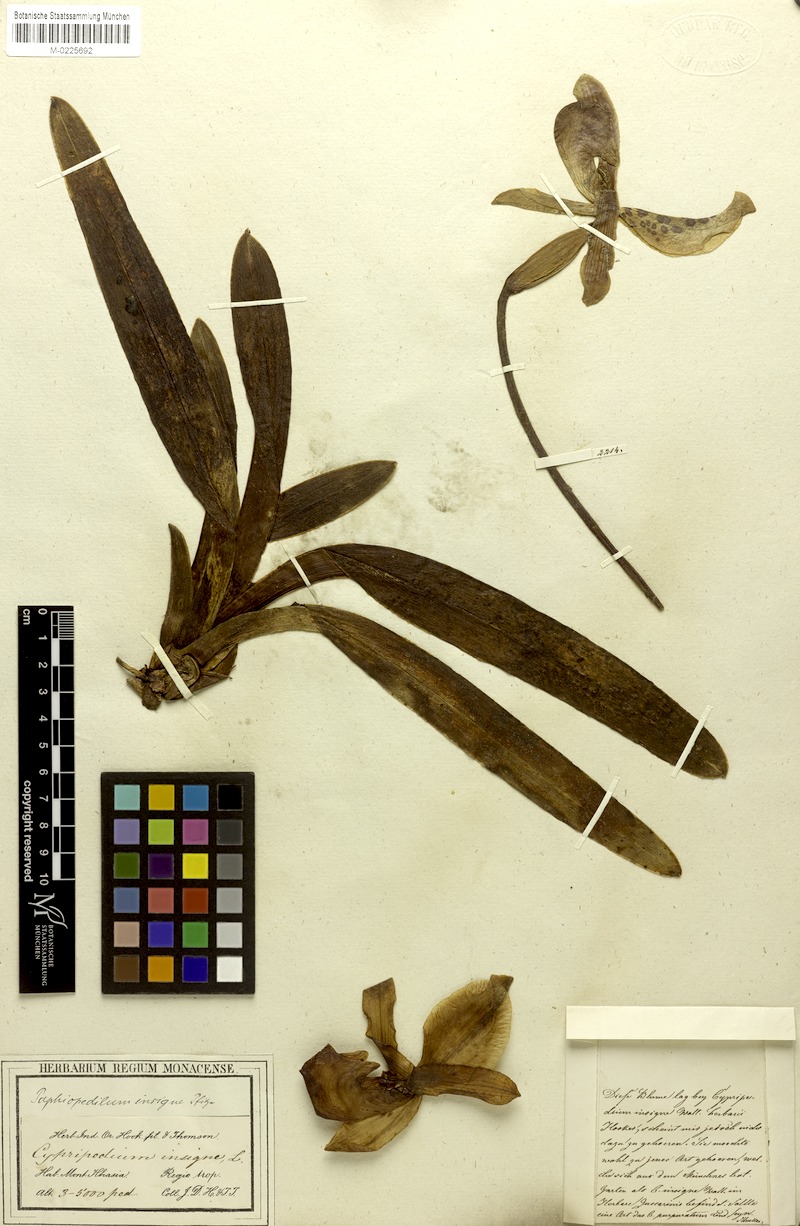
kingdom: Plantae
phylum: Tracheophyta
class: Liliopsida
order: Asparagales
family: Orchidaceae
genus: Paphiopedilum
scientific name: Paphiopedilum insigne
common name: Splendid paphiopedilum
